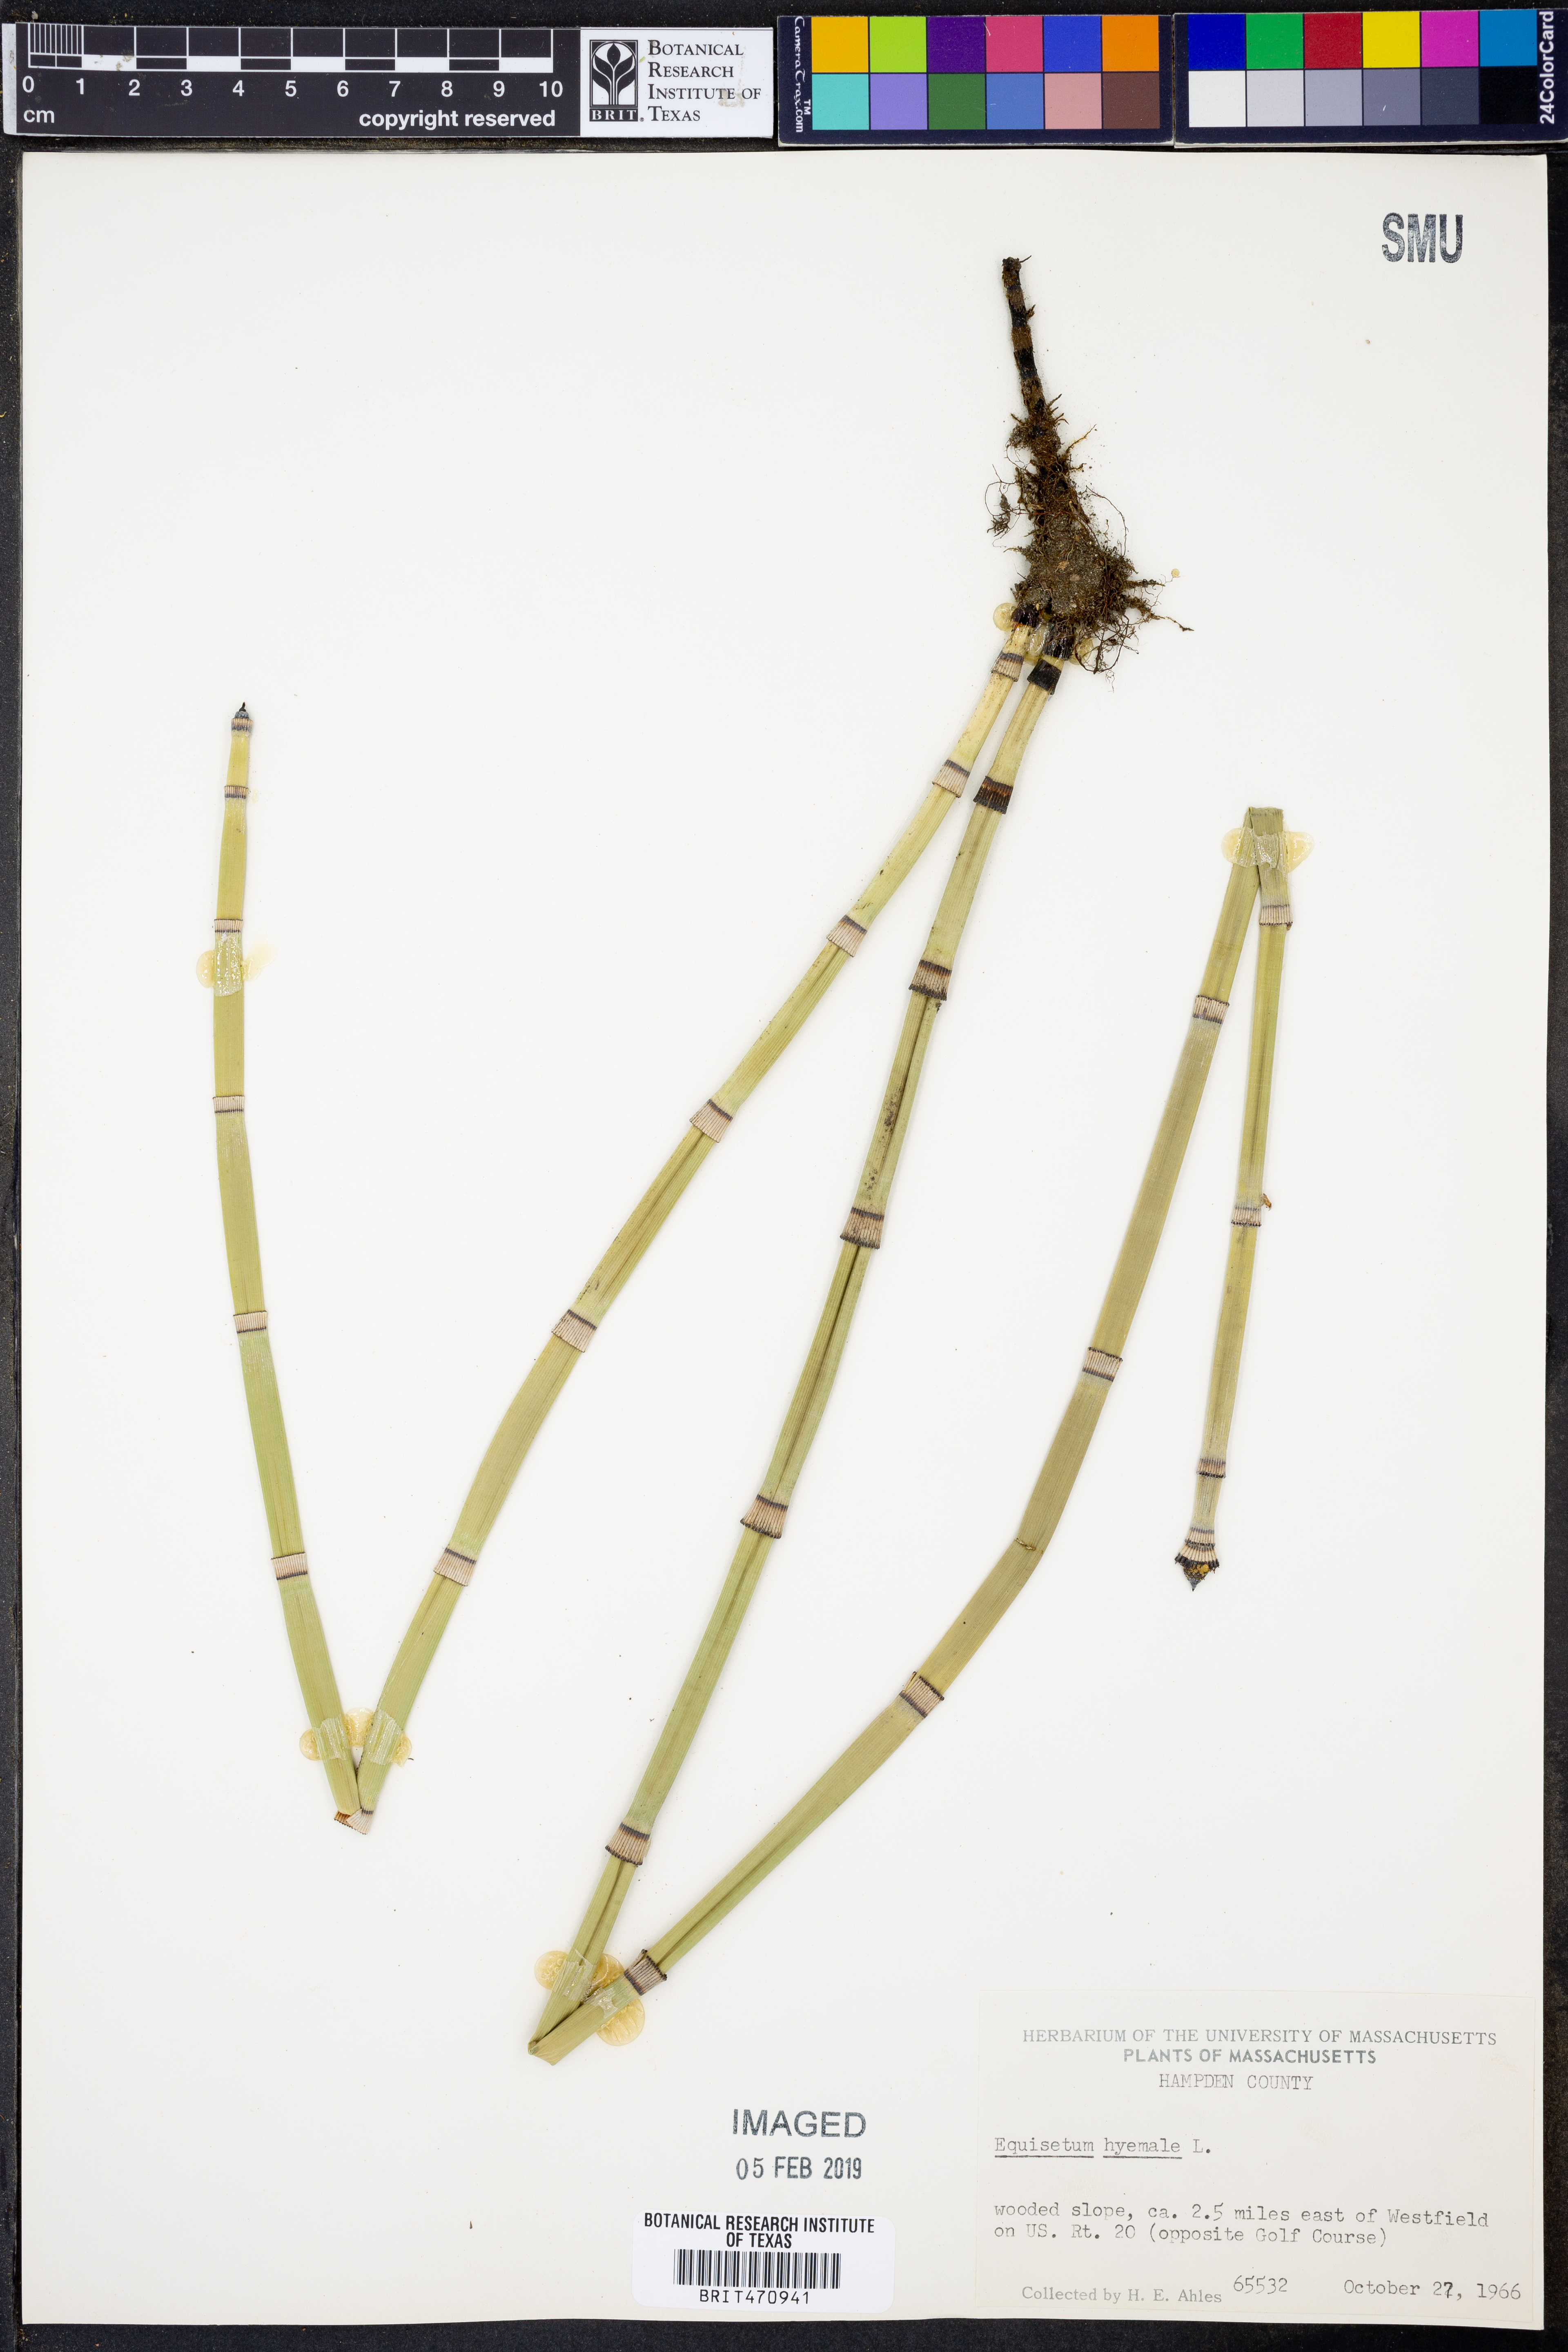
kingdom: Plantae
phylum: Tracheophyta
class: Polypodiopsida
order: Equisetales
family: Equisetaceae
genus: Equisetum
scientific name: Equisetum hyemale
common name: Rough horsetail
